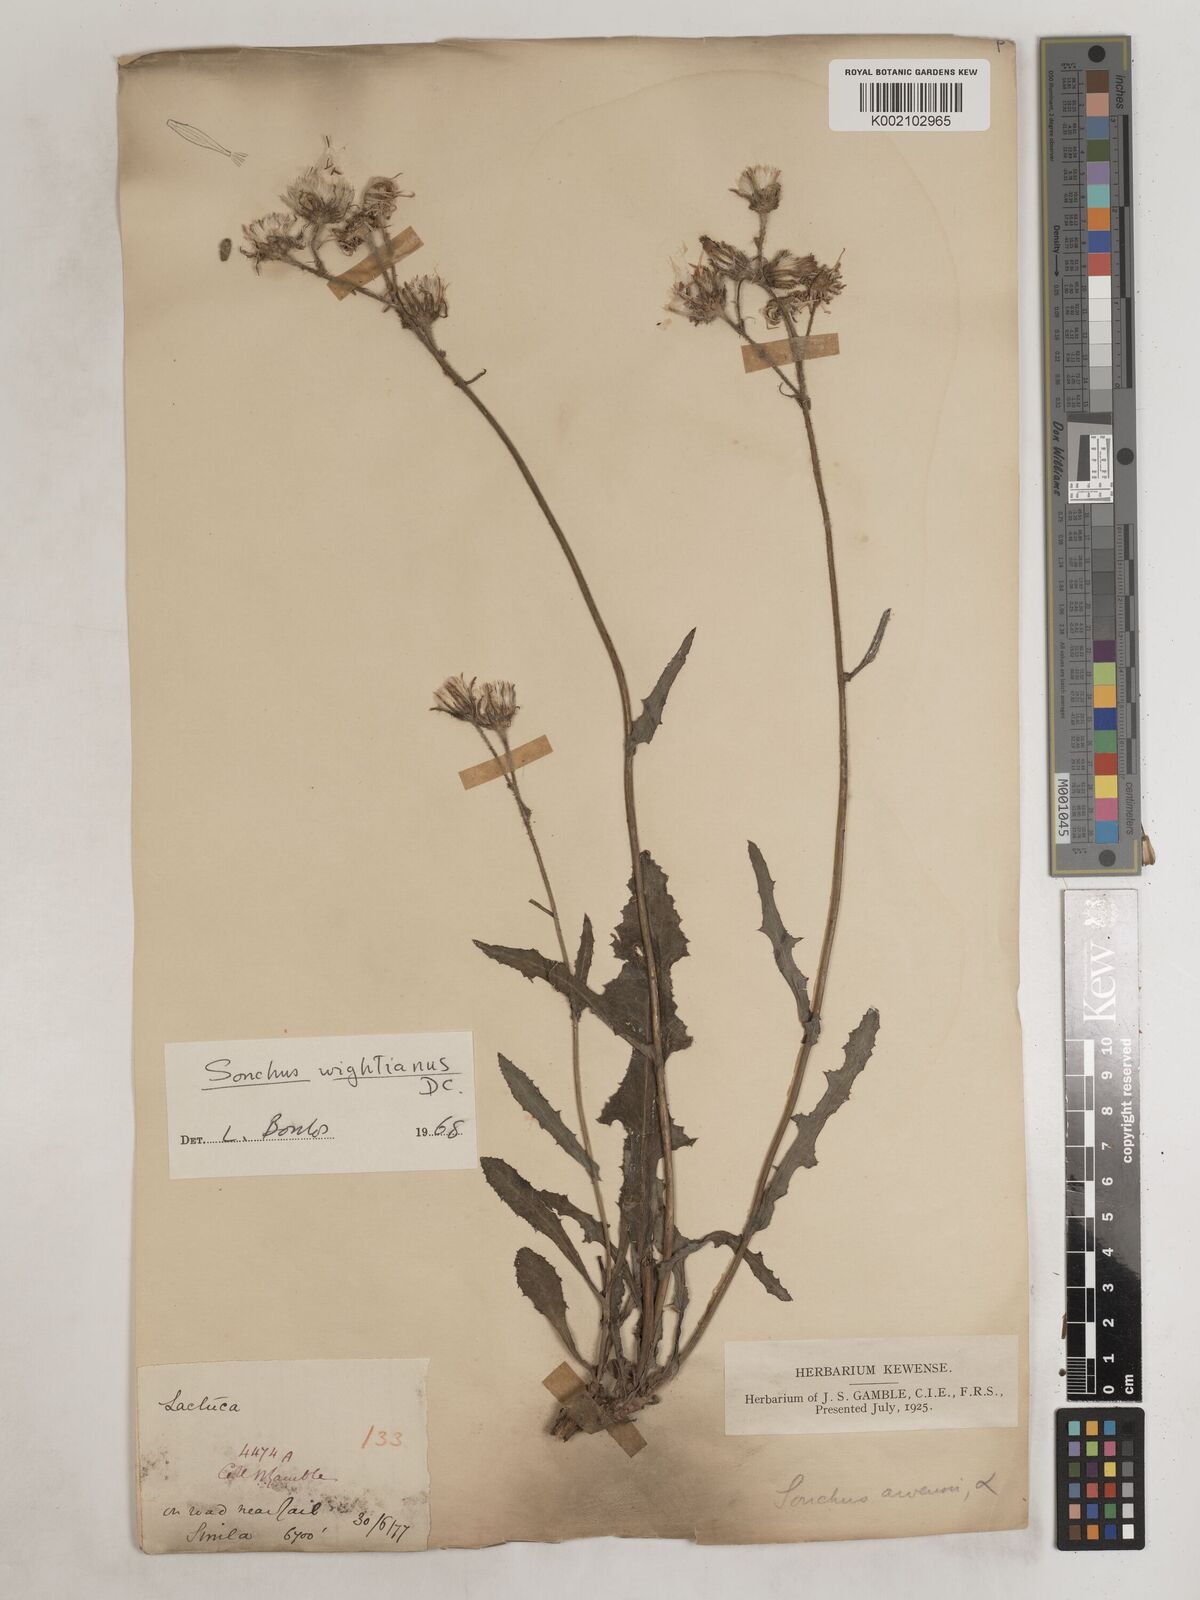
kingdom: Plantae
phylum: Tracheophyta
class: Magnoliopsida
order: Asterales
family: Asteraceae
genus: Sonchus
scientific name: Sonchus arvensis
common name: Perennial sow-thistle
